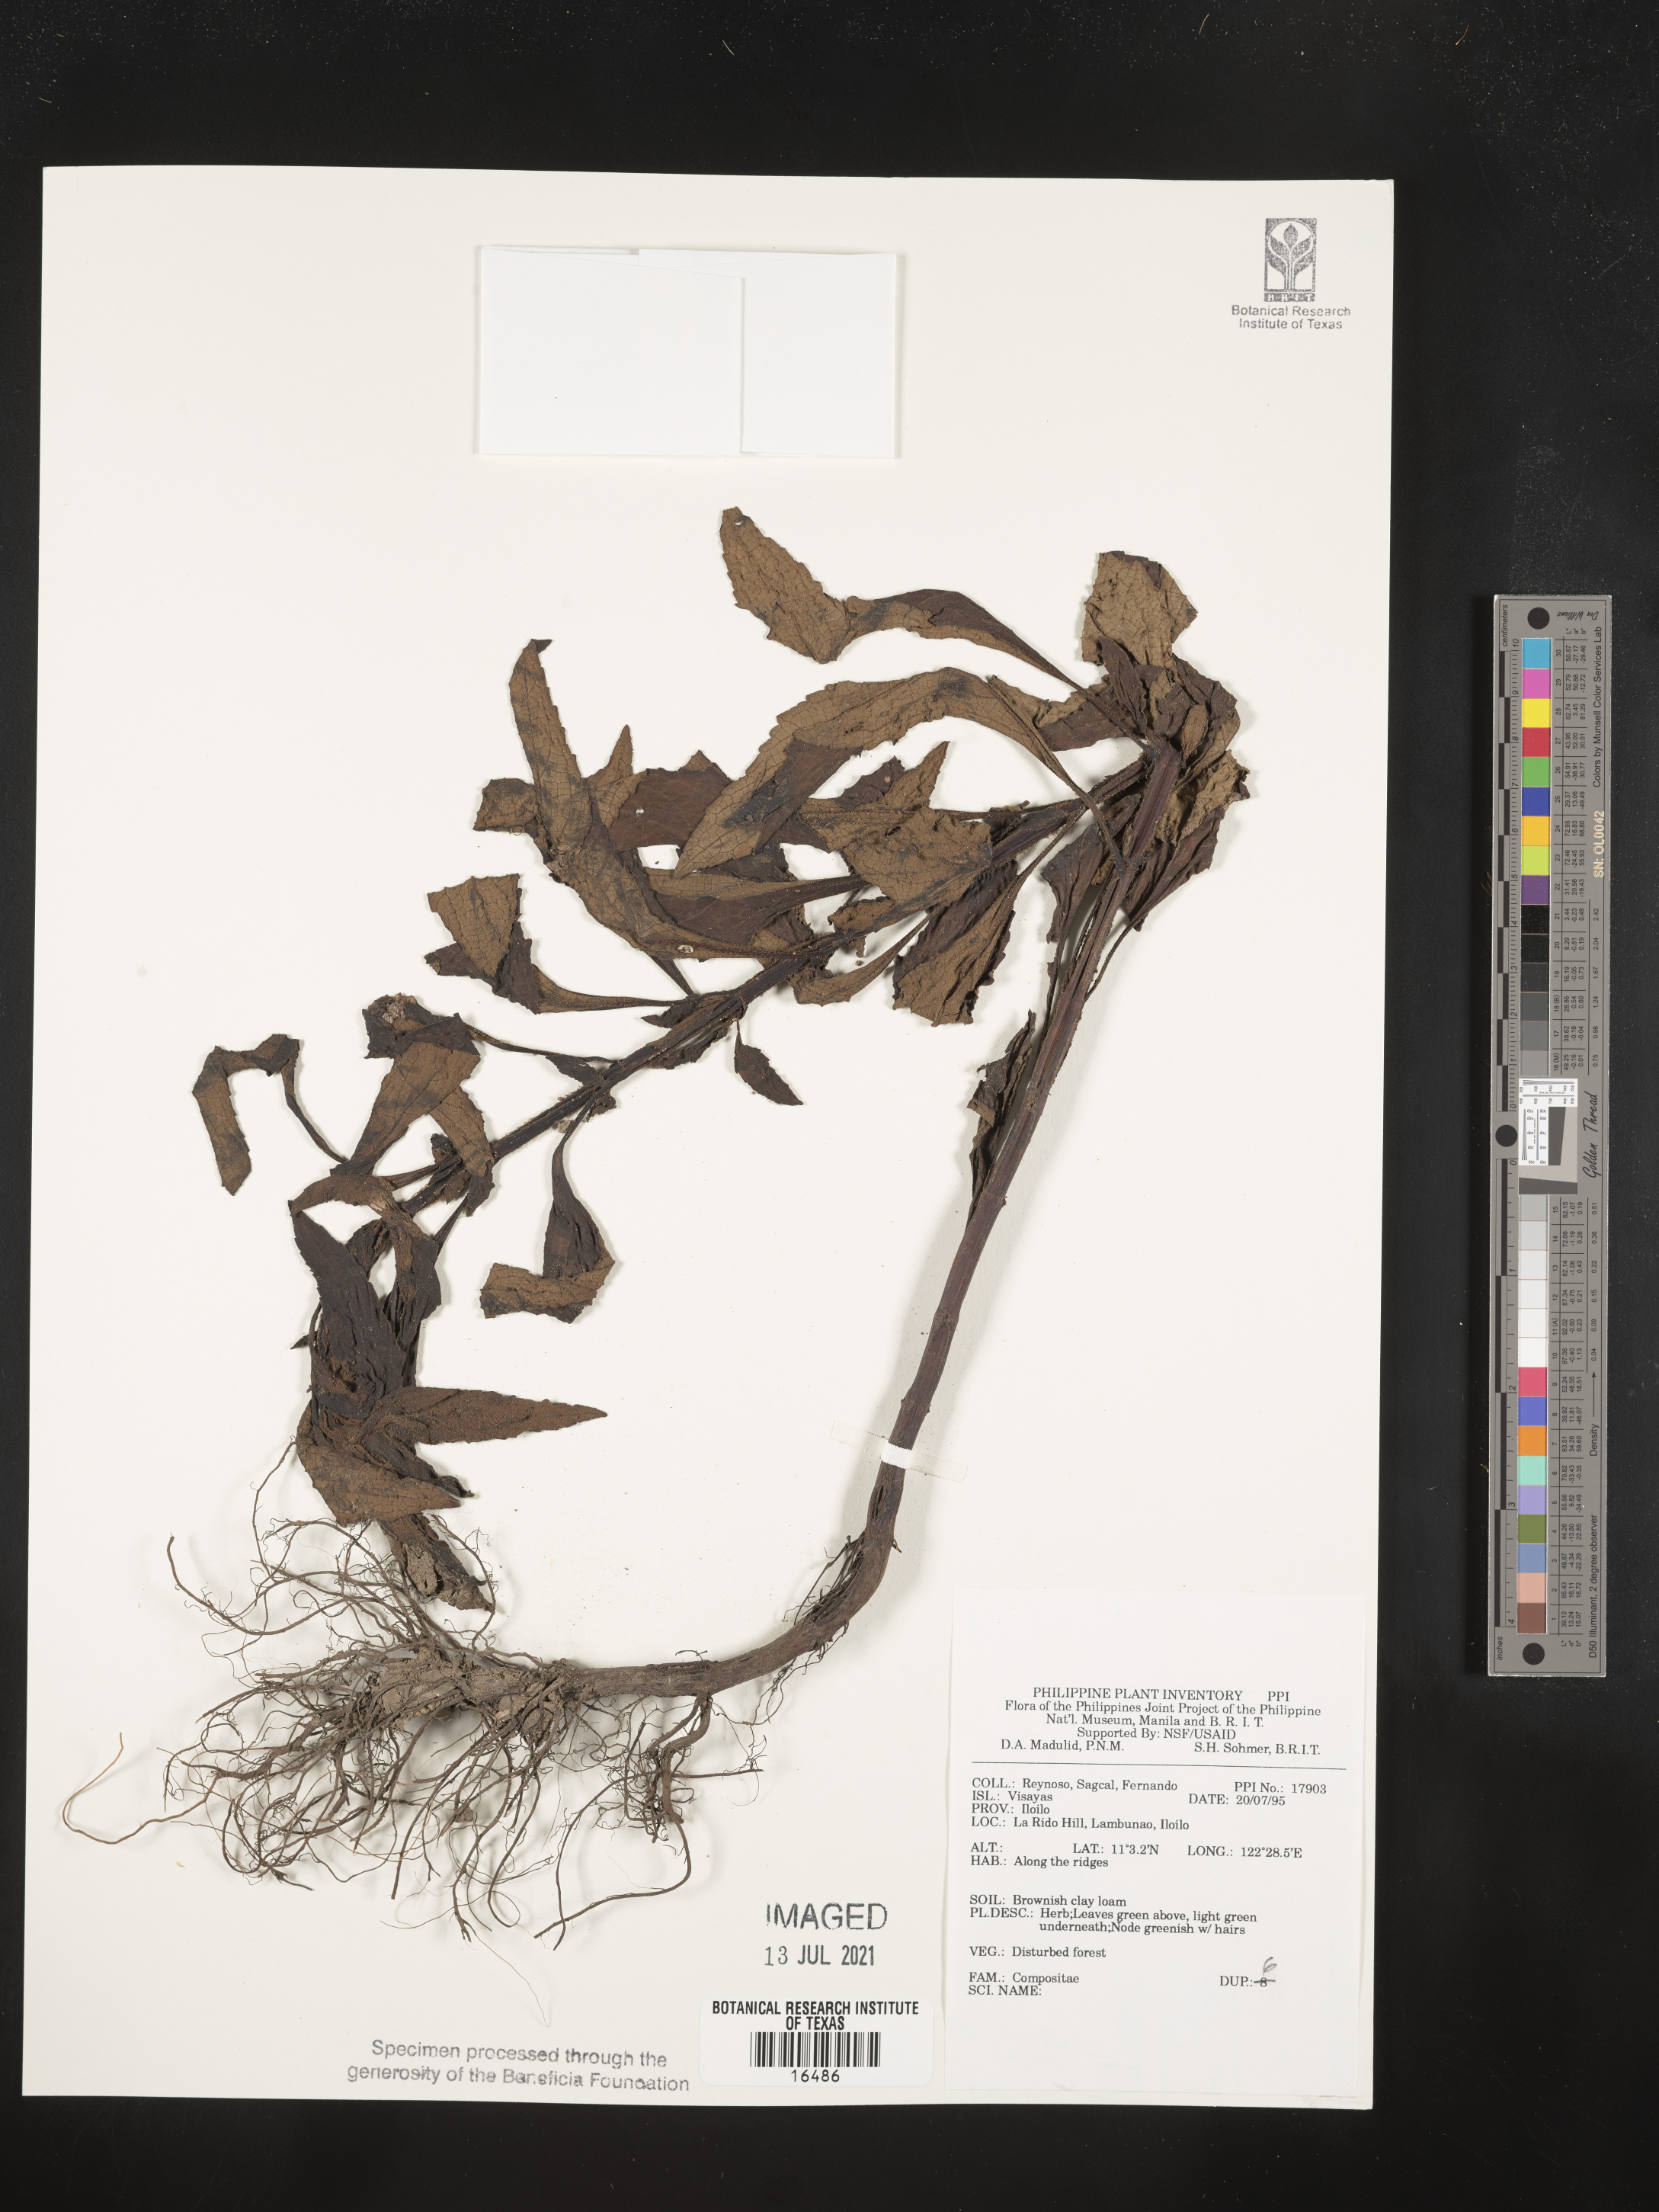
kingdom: Plantae
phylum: Tracheophyta
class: Magnoliopsida
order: Asterales
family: Asteraceae
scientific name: Asteraceae
